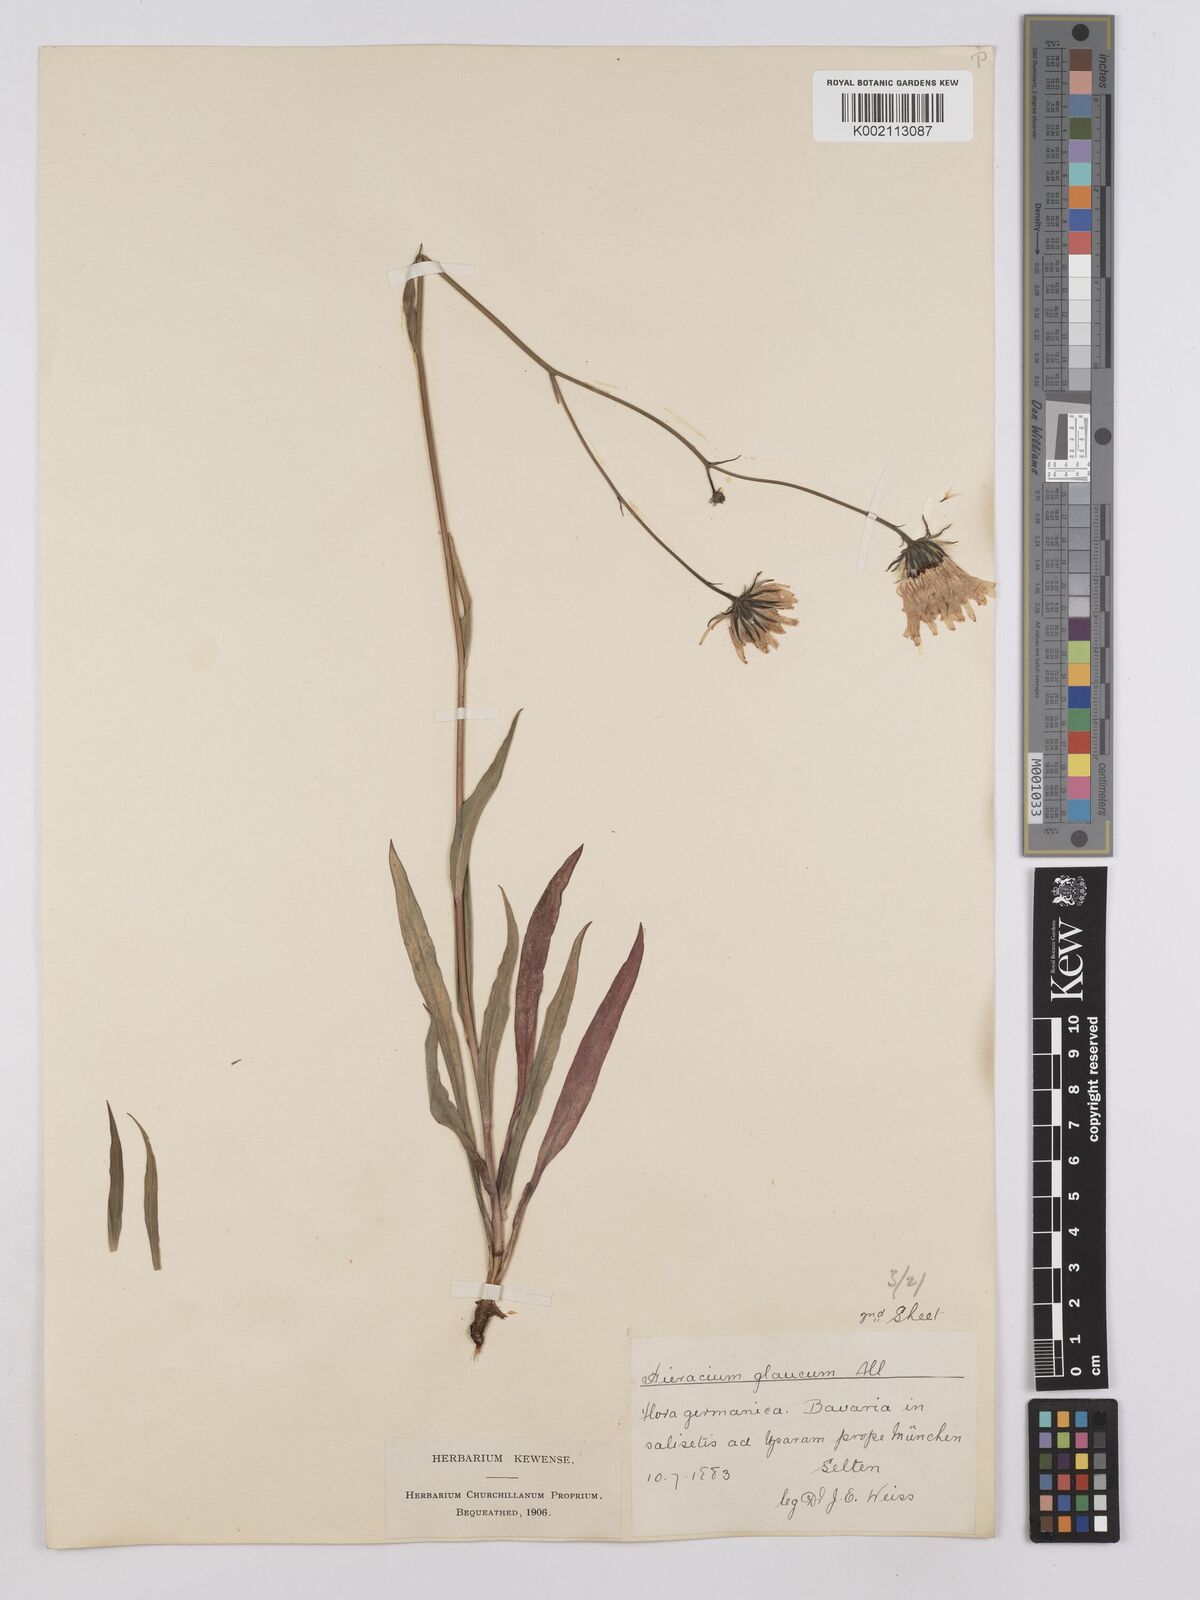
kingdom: Plantae
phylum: Tracheophyta
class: Magnoliopsida
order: Asterales
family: Asteraceae
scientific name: Asteraceae
